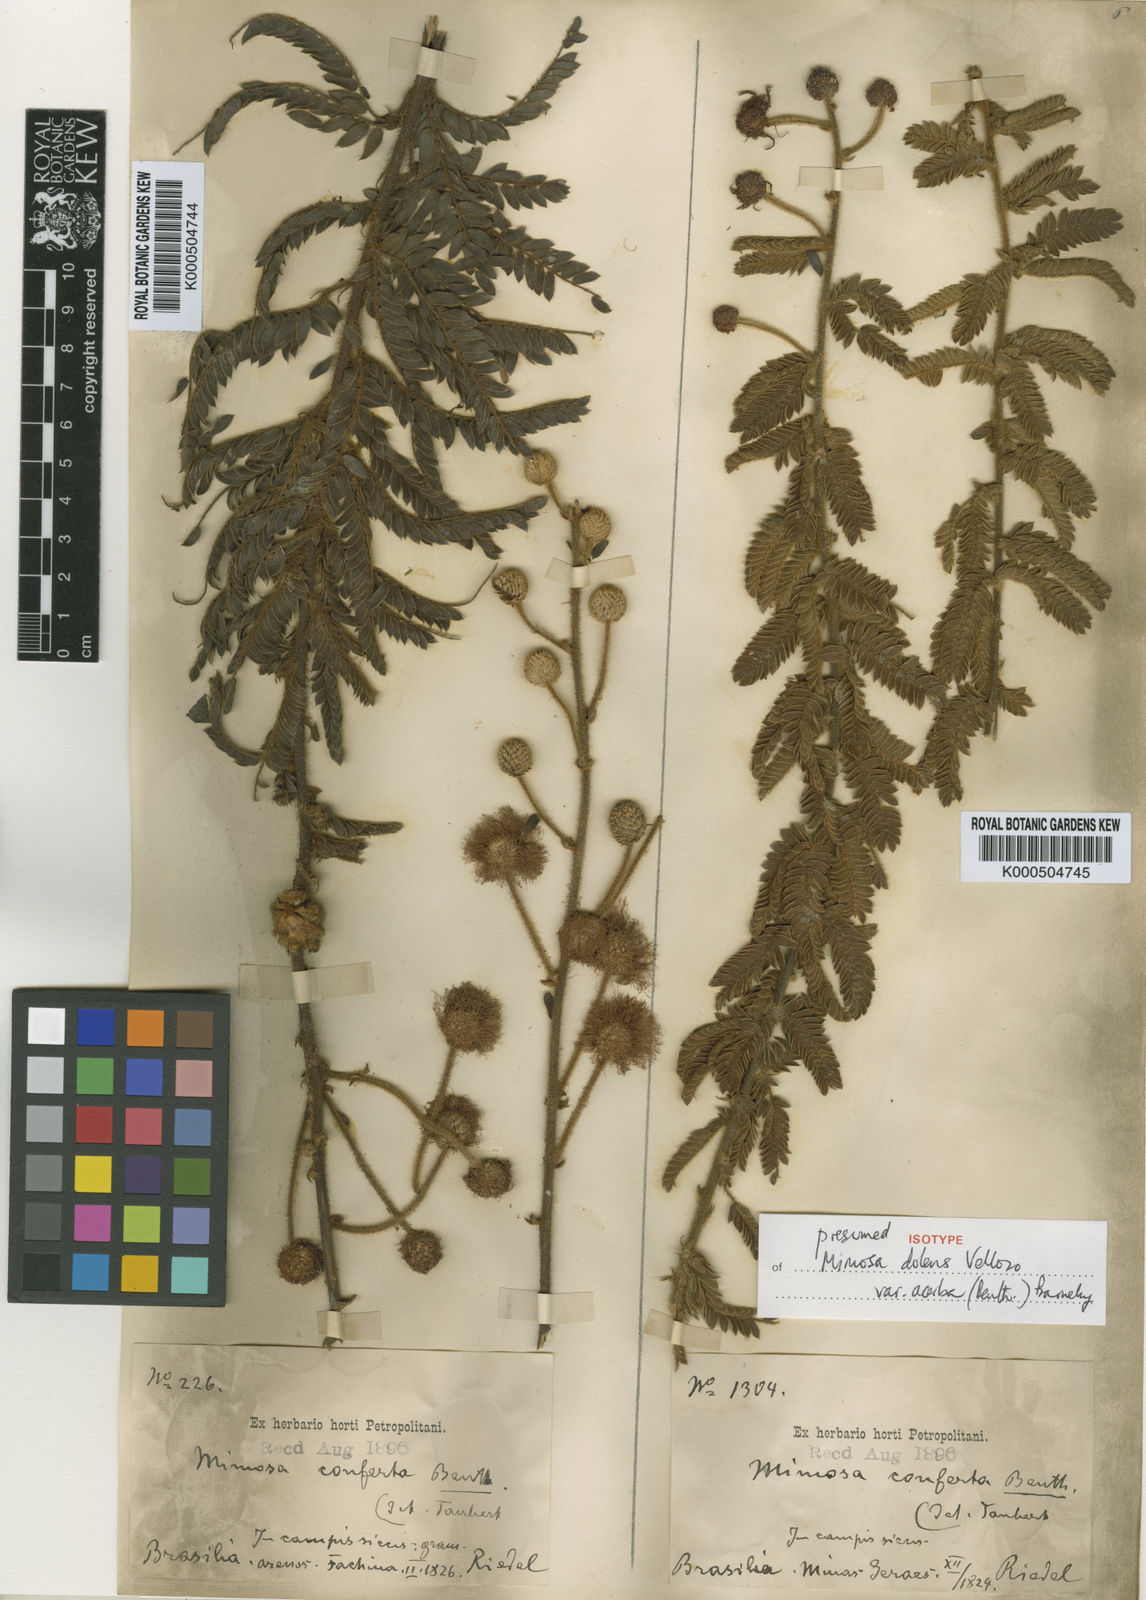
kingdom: Plantae
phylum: Tracheophyta
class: Magnoliopsida
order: Fabales
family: Fabaceae
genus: Mimosa
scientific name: Mimosa dolens
